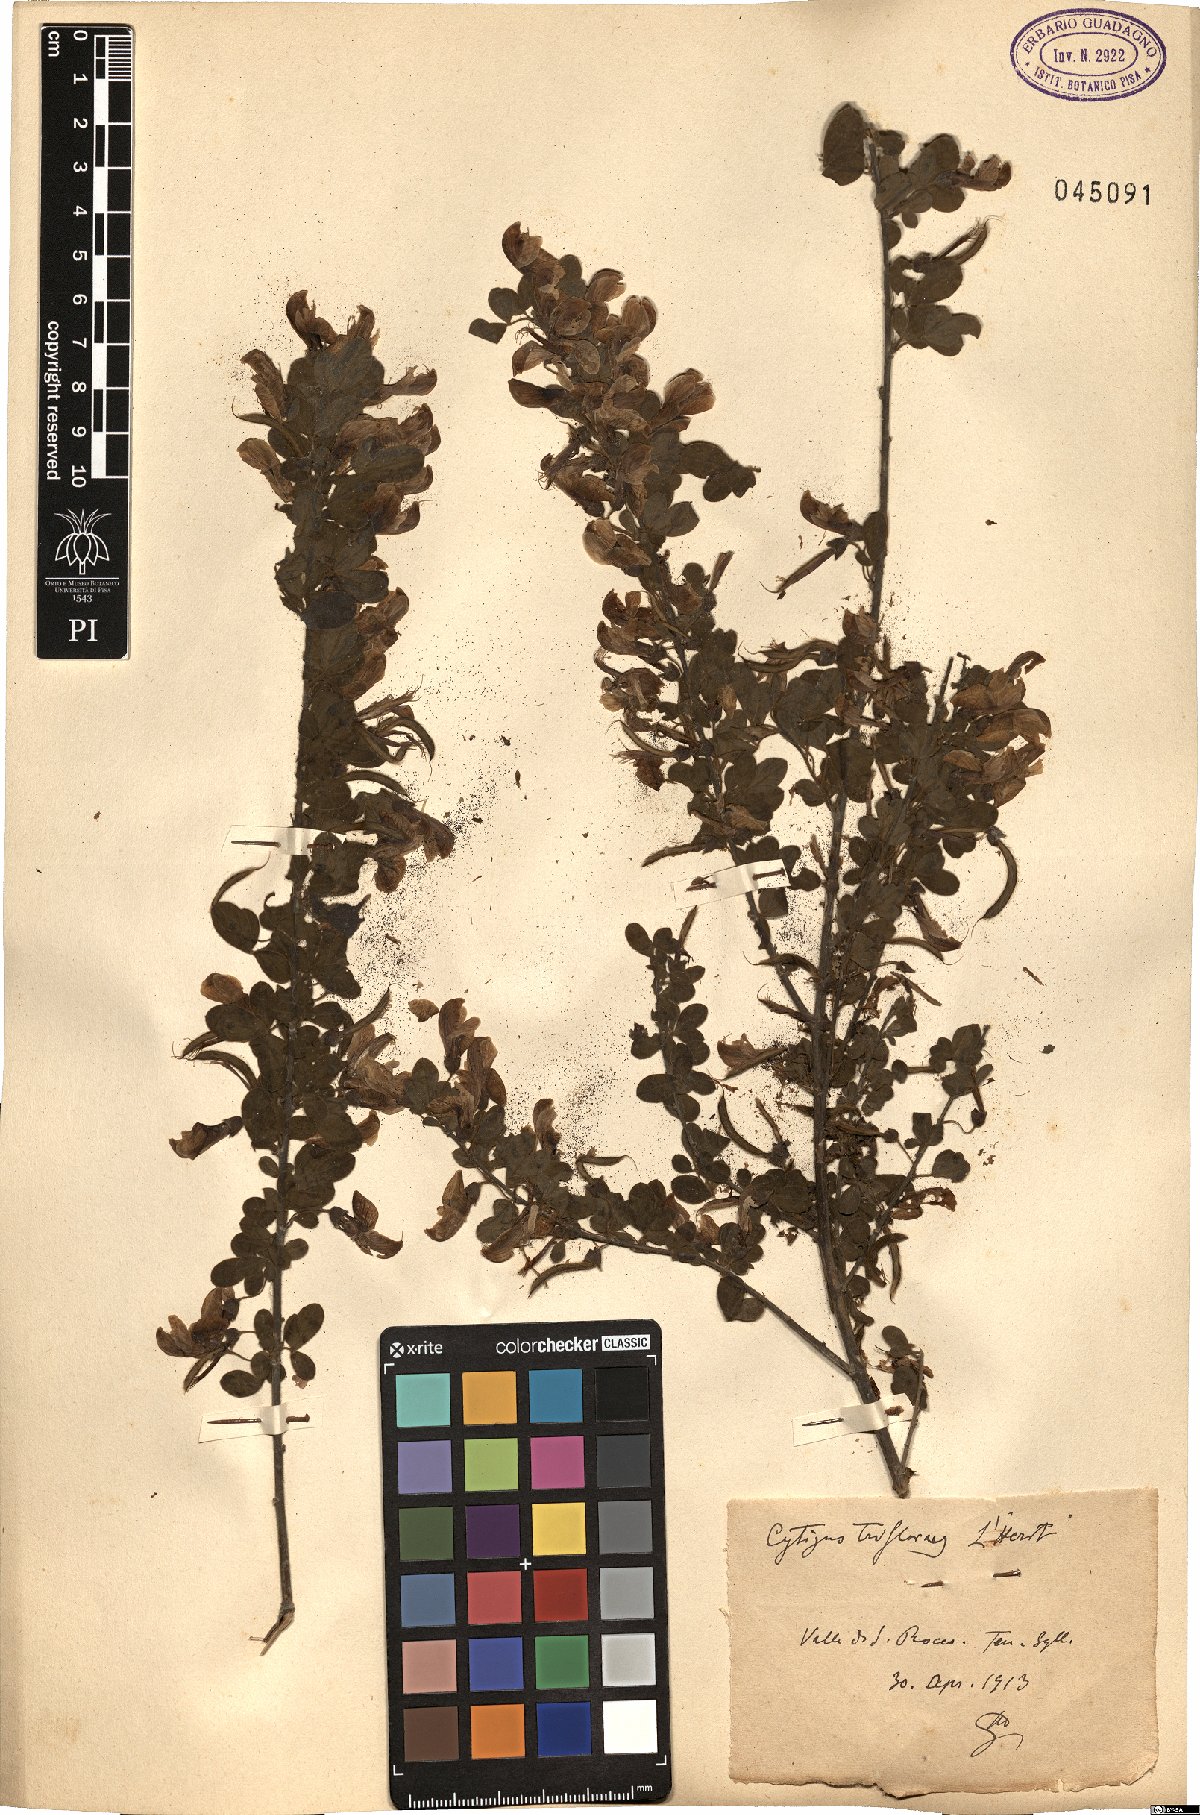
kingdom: Plantae
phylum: Tracheophyta
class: Magnoliopsida
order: Fabales
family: Fabaceae
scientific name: Fabaceae
